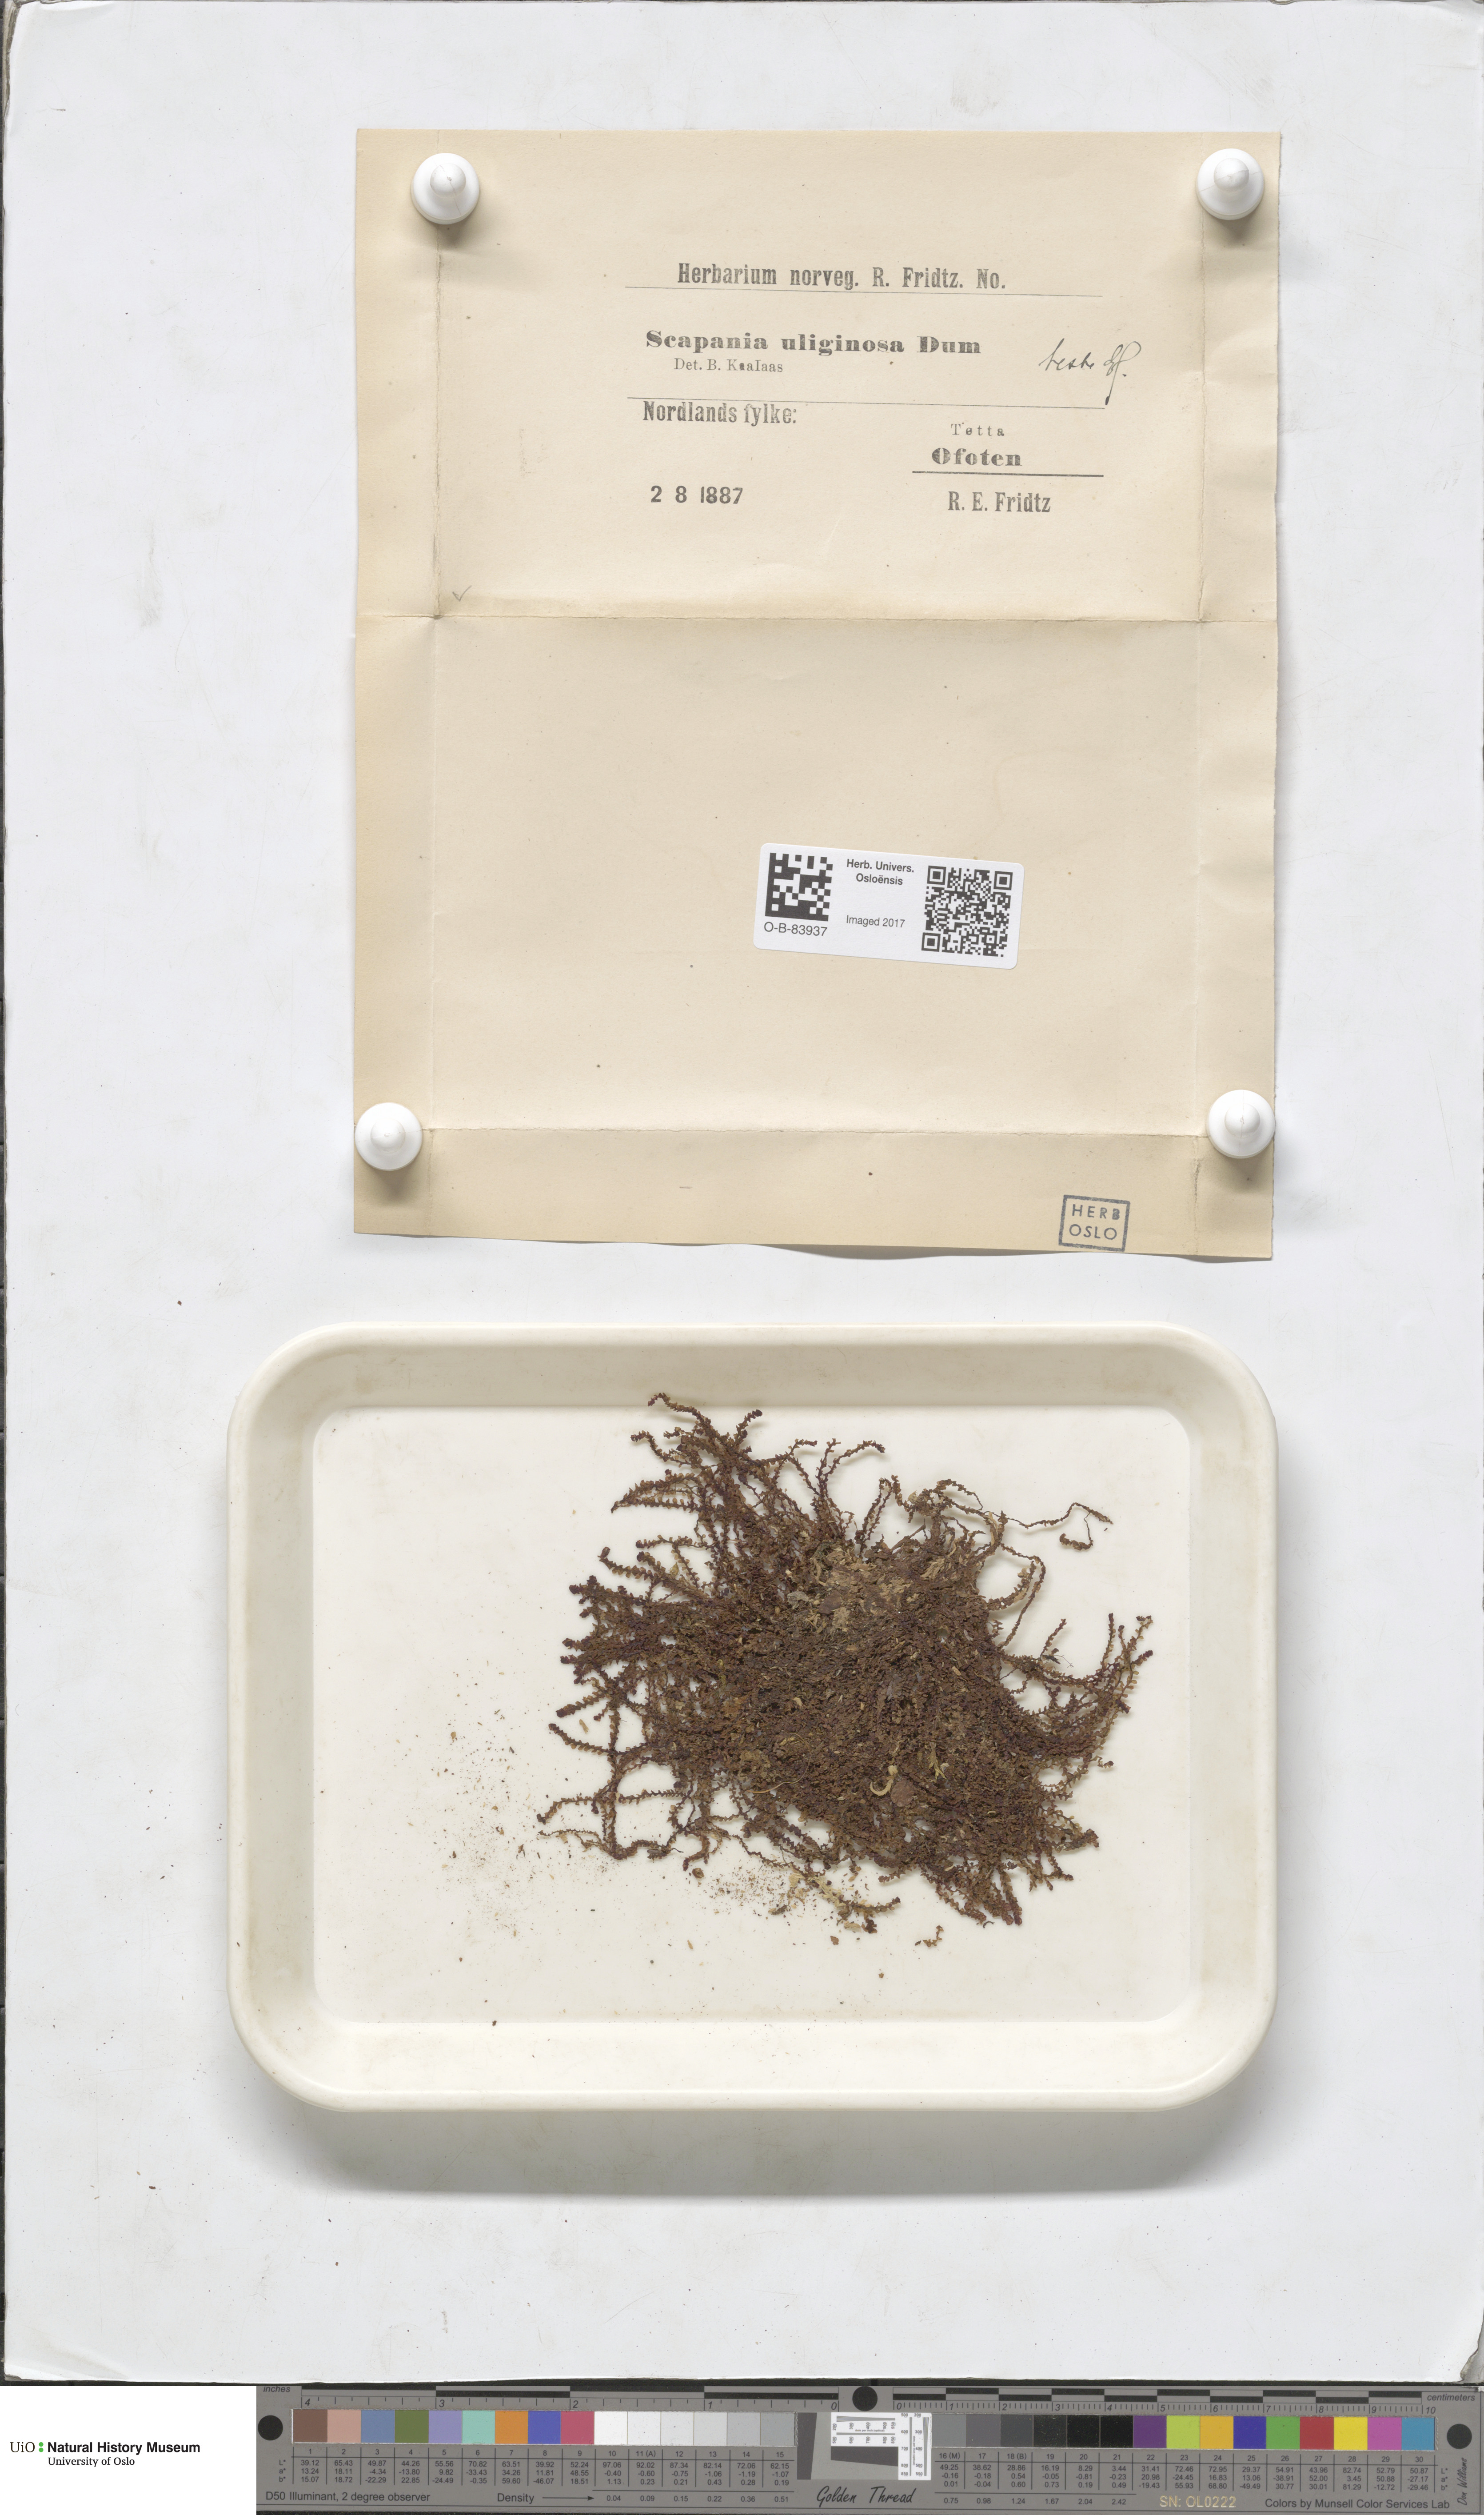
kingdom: Plantae
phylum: Marchantiophyta
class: Jungermanniopsida
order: Jungermanniales
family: Scapaniaceae
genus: Scapania
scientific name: Scapania uliginosa
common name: Marsh earwort
